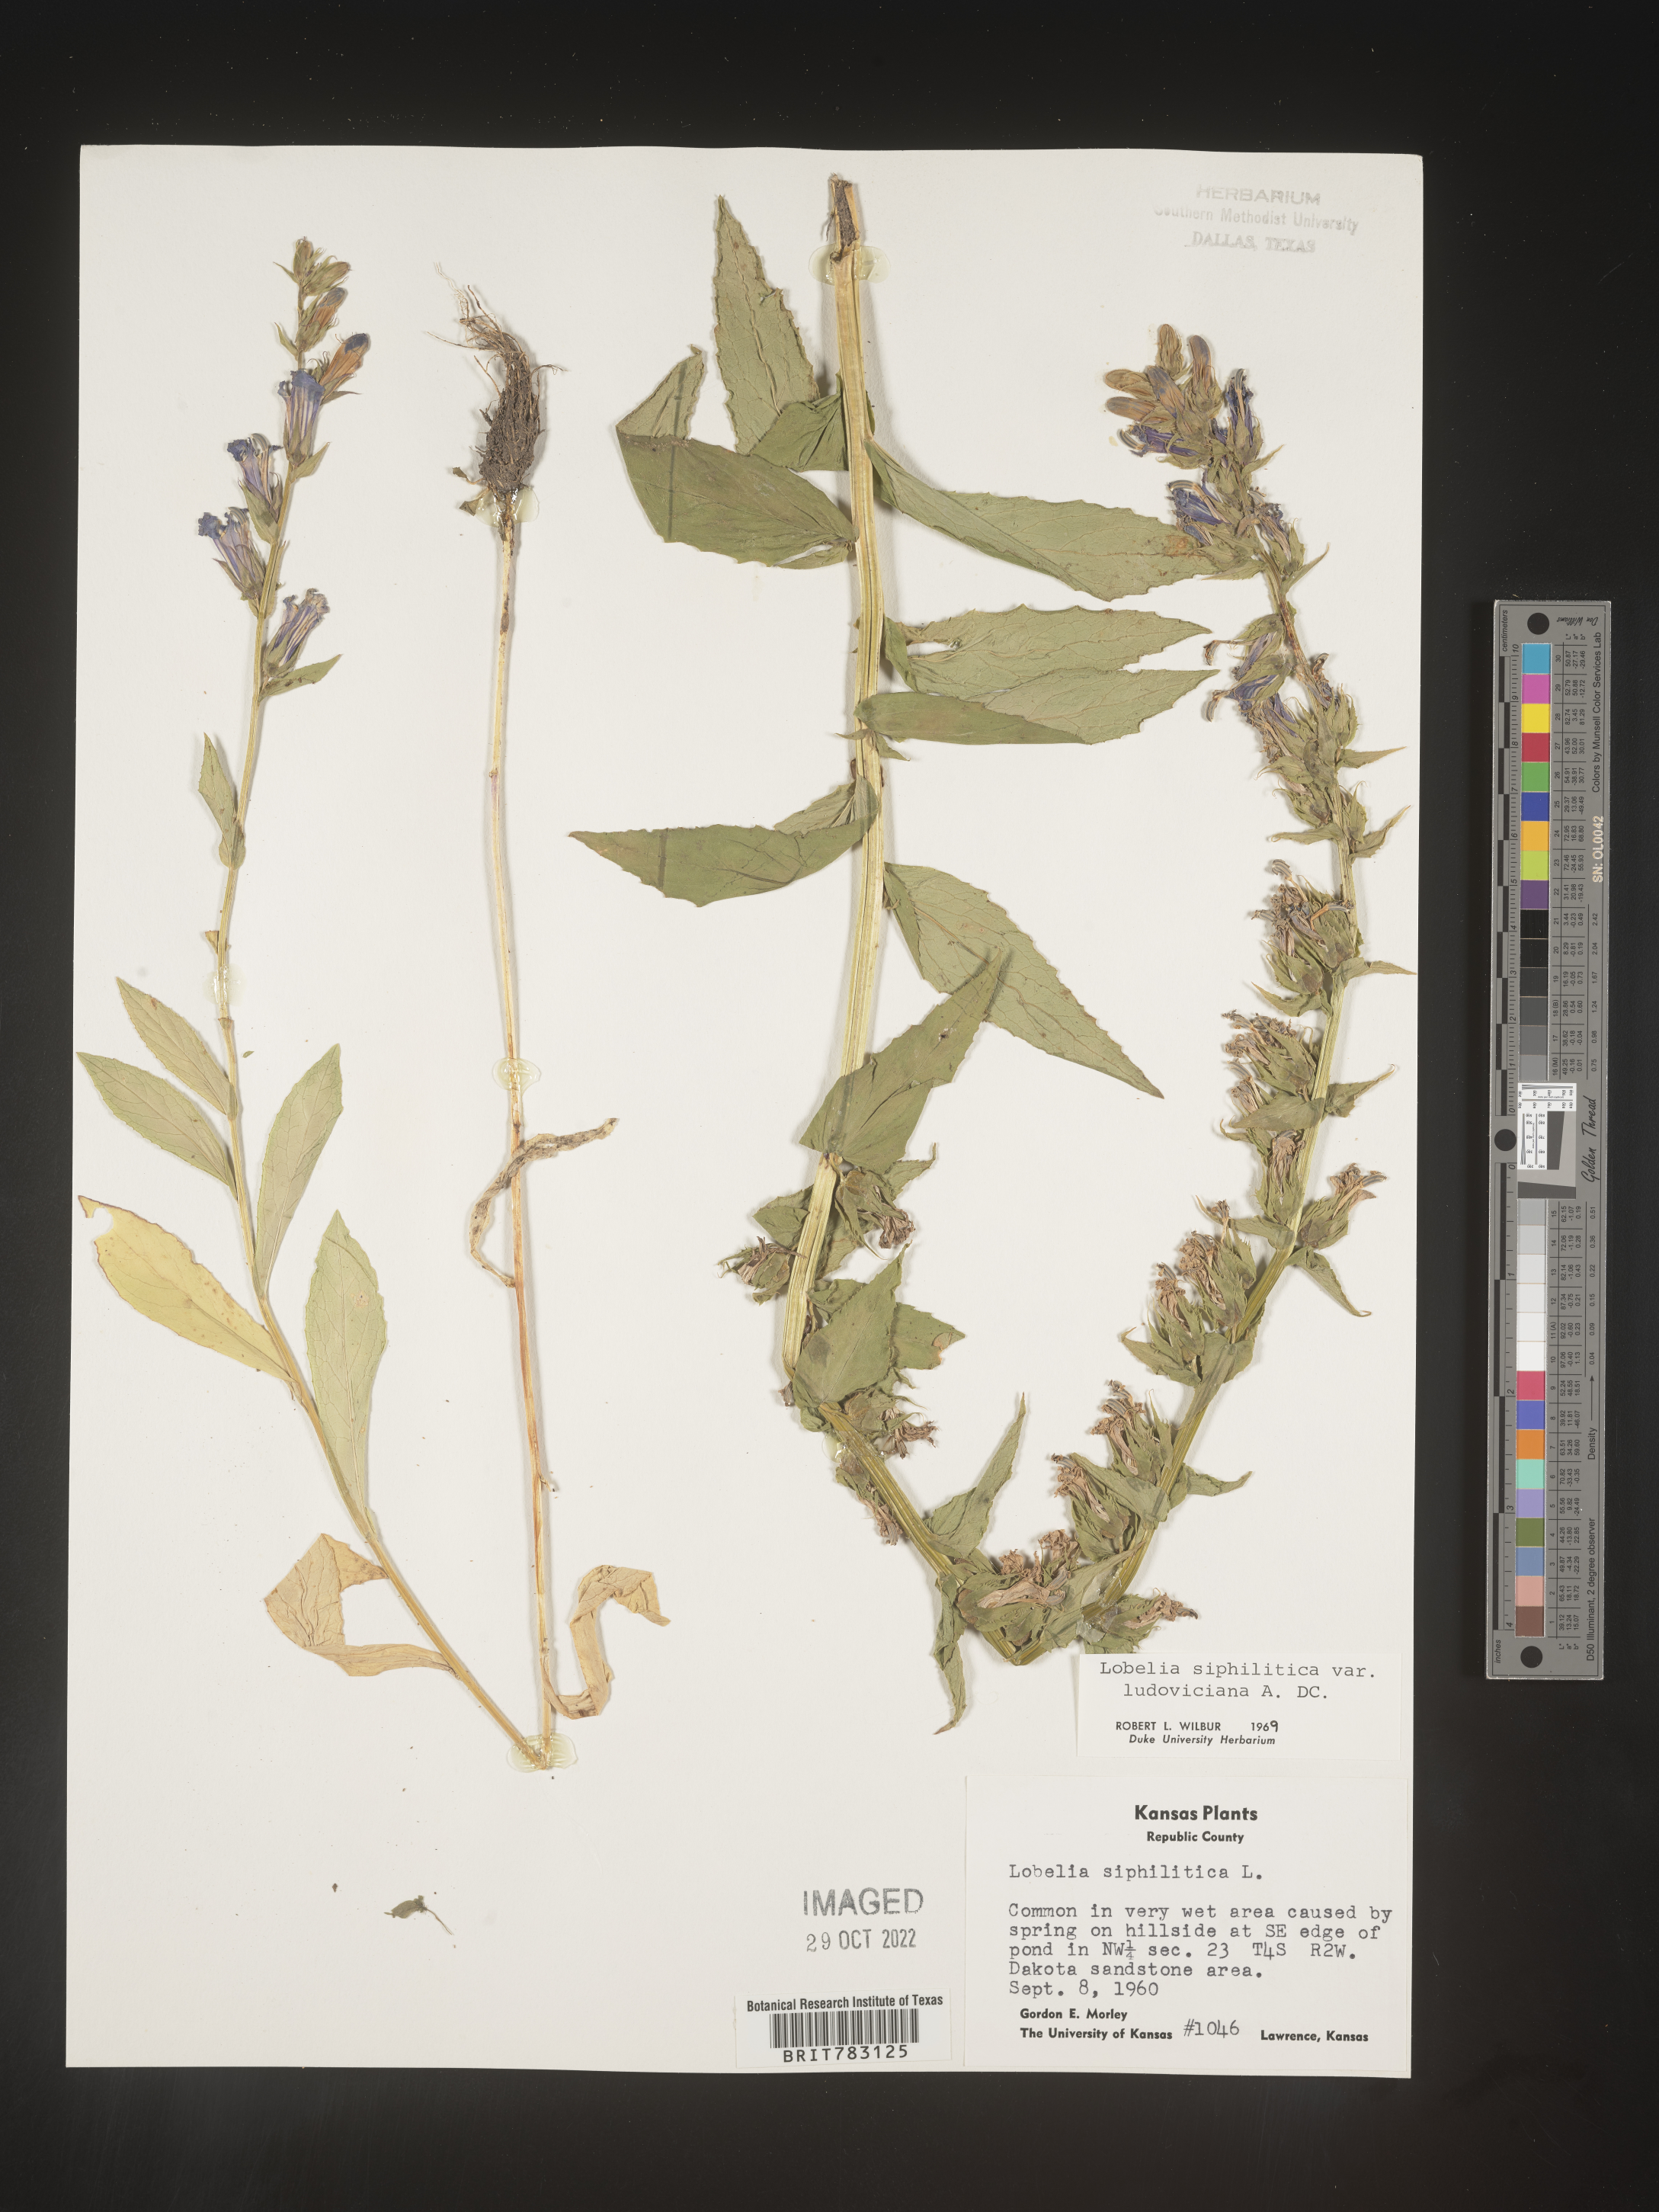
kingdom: Plantae
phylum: Tracheophyta
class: Magnoliopsida
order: Asterales
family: Campanulaceae
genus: Lobelia
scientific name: Lobelia siphilitica
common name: Great lobelia
